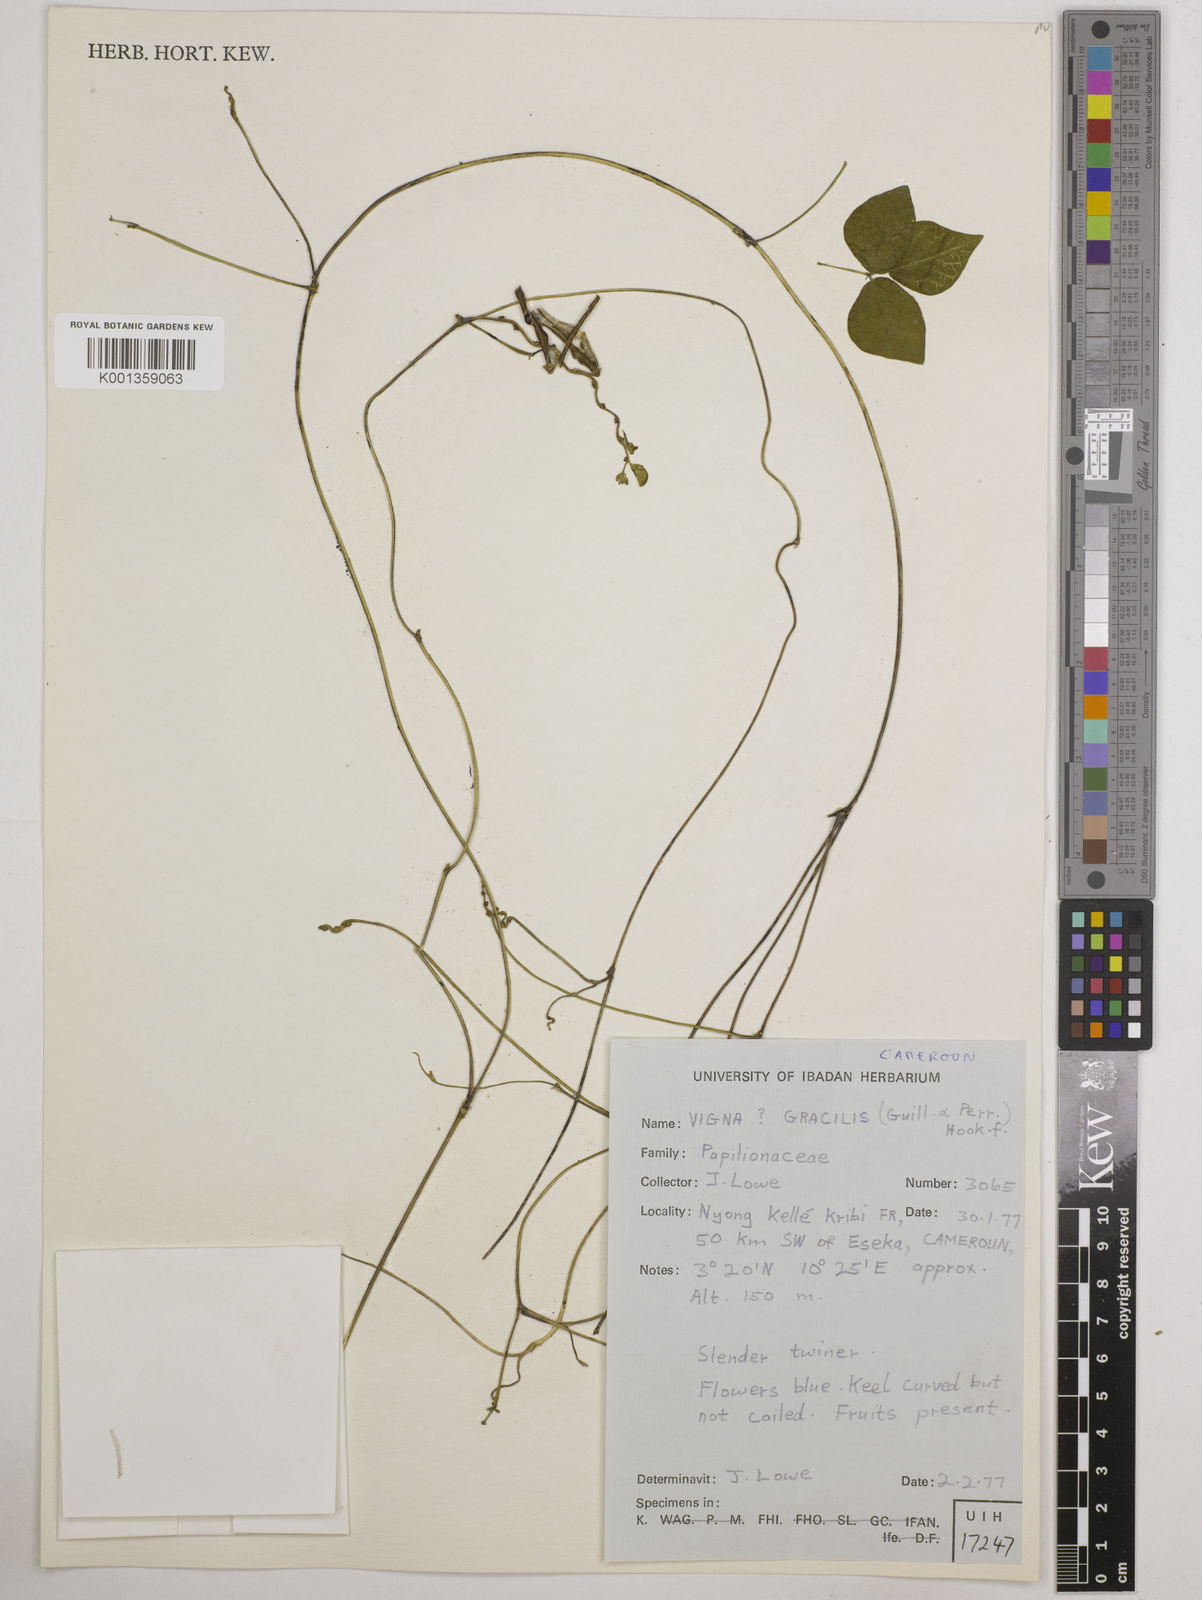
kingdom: Plantae
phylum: Tracheophyta
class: Magnoliopsida
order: Fabales
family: Fabaceae
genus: Vigna
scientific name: Vigna gracilis
